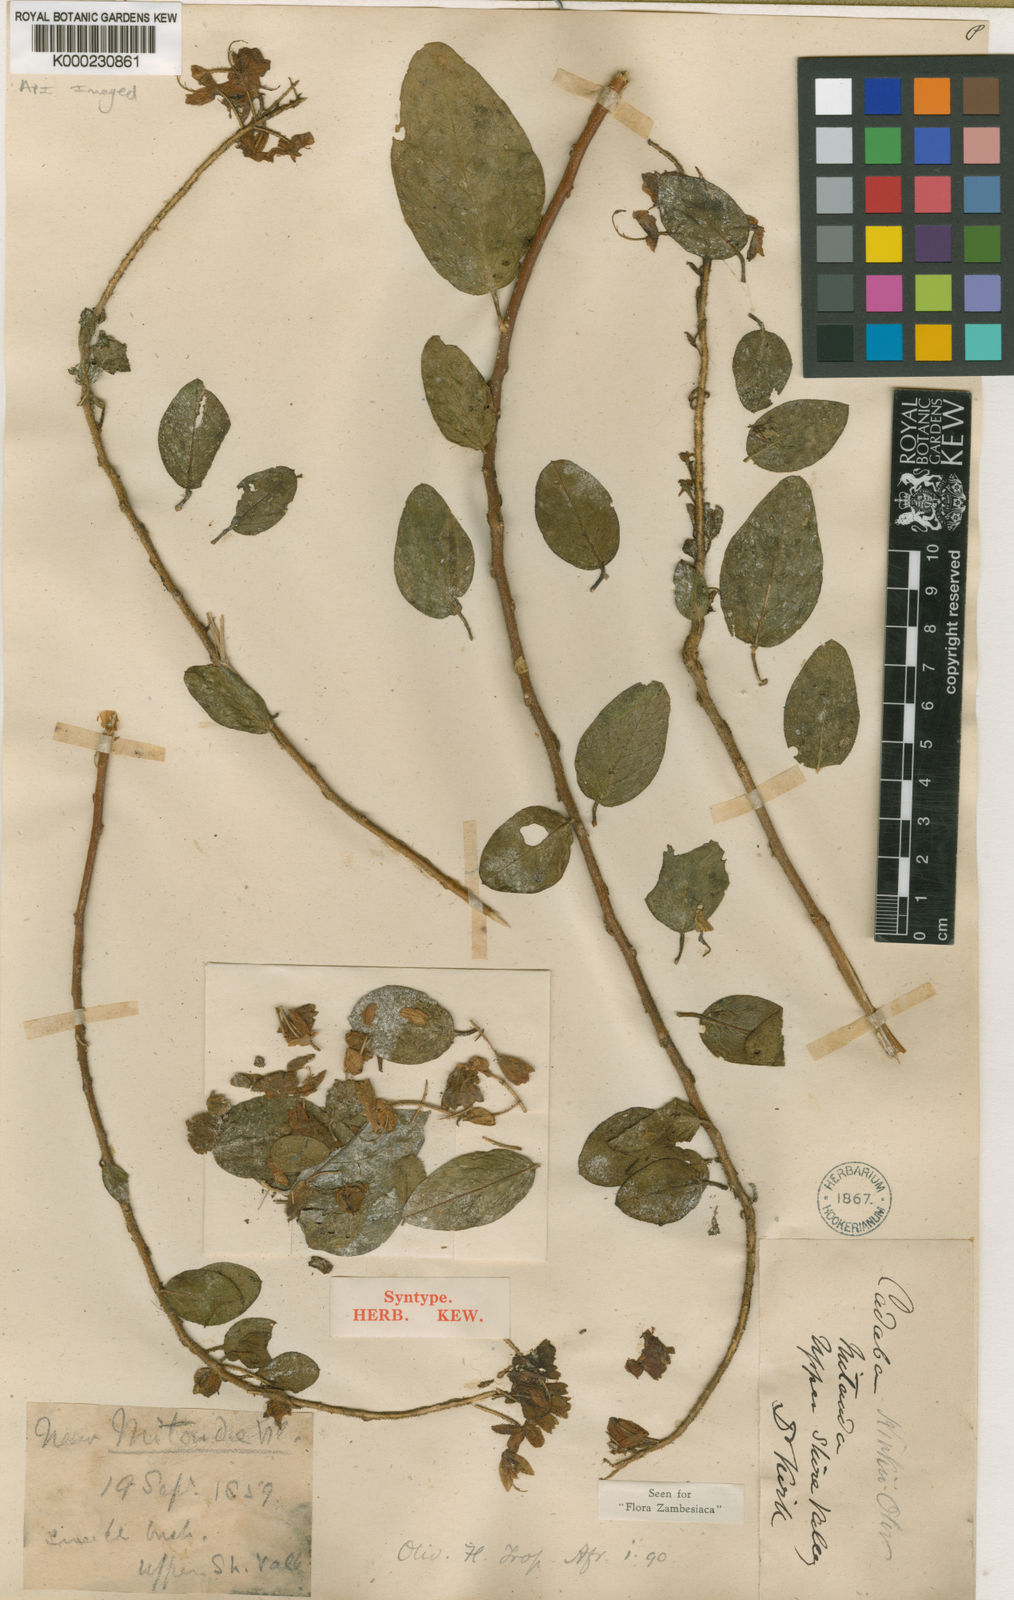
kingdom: Plantae
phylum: Tracheophyta
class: Magnoliopsida
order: Brassicales
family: Capparaceae
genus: Cadaba
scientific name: Cadaba kirkii
